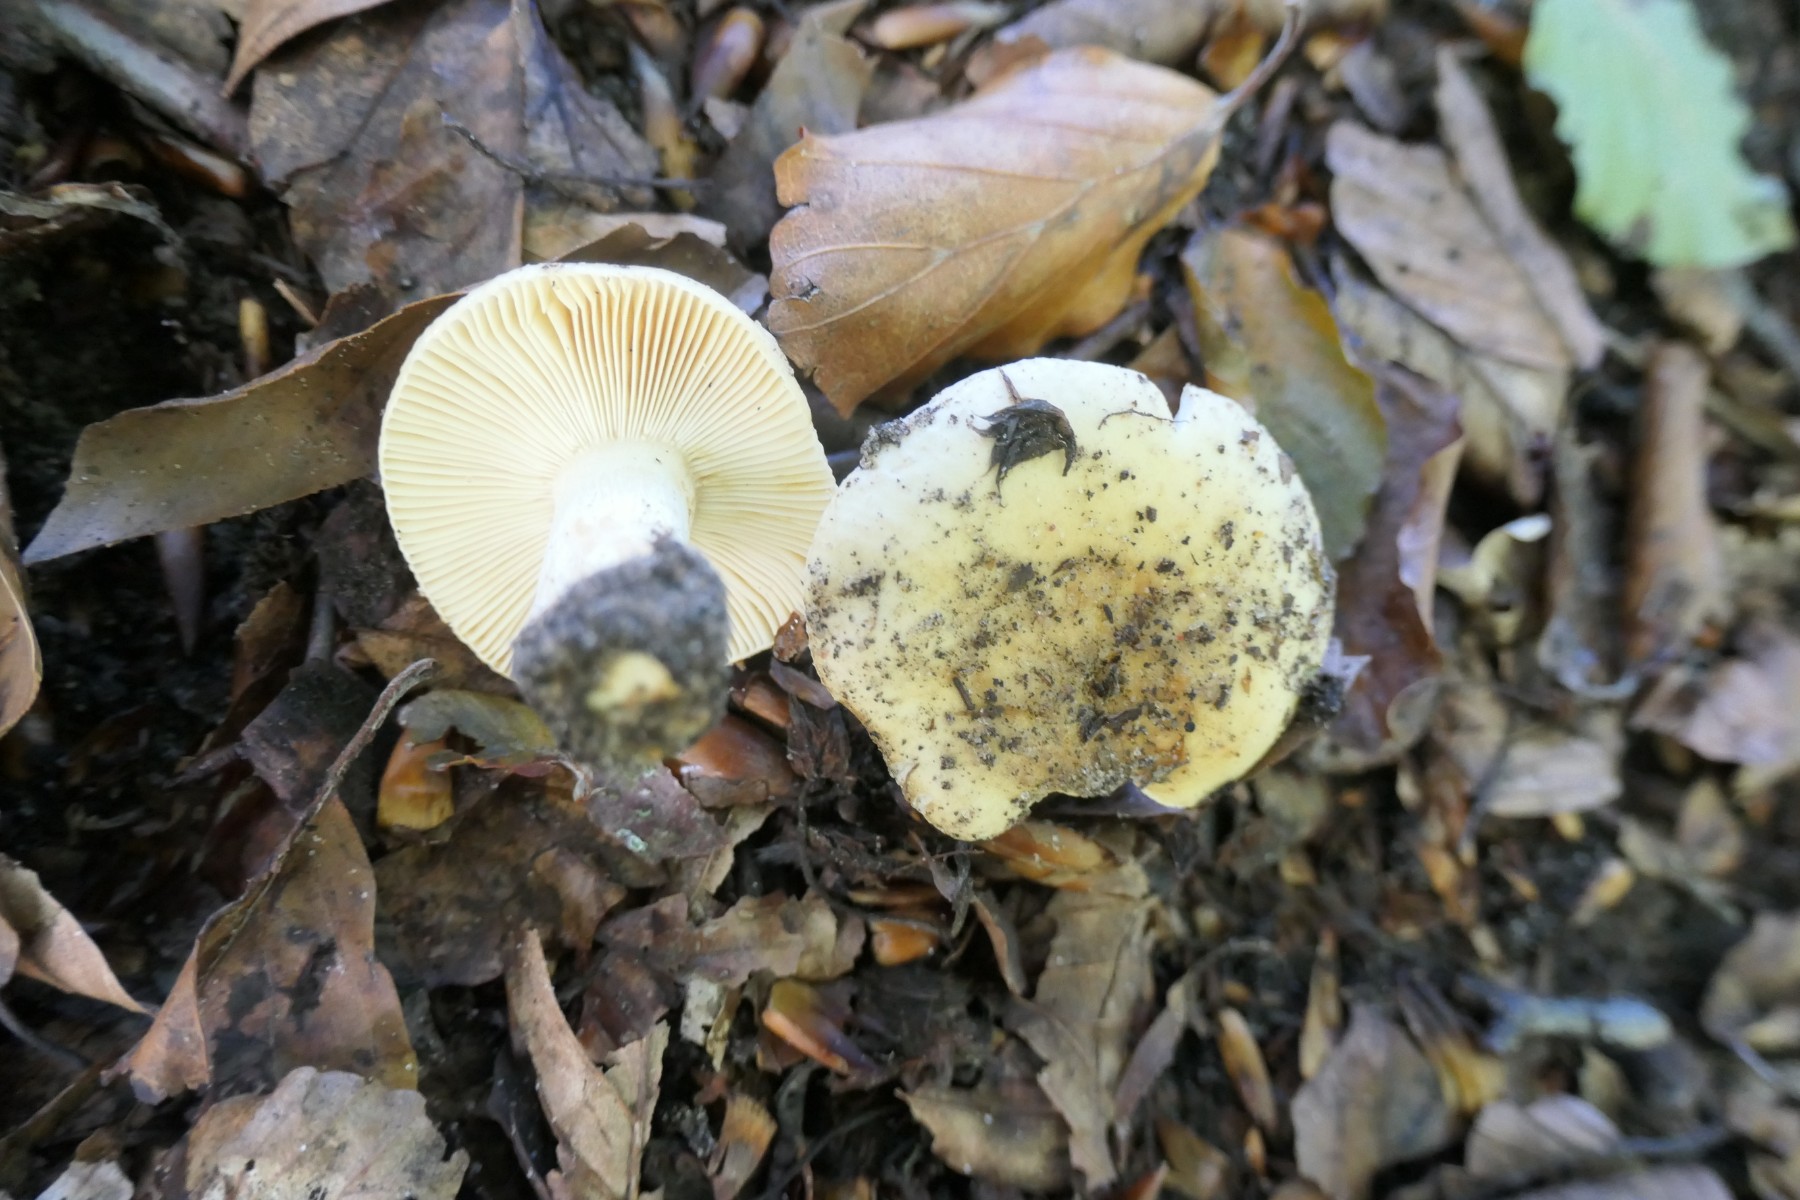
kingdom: Fungi
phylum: Basidiomycota
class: Agaricomycetes
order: Russulales
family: Russulaceae
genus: Russula
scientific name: Russula
